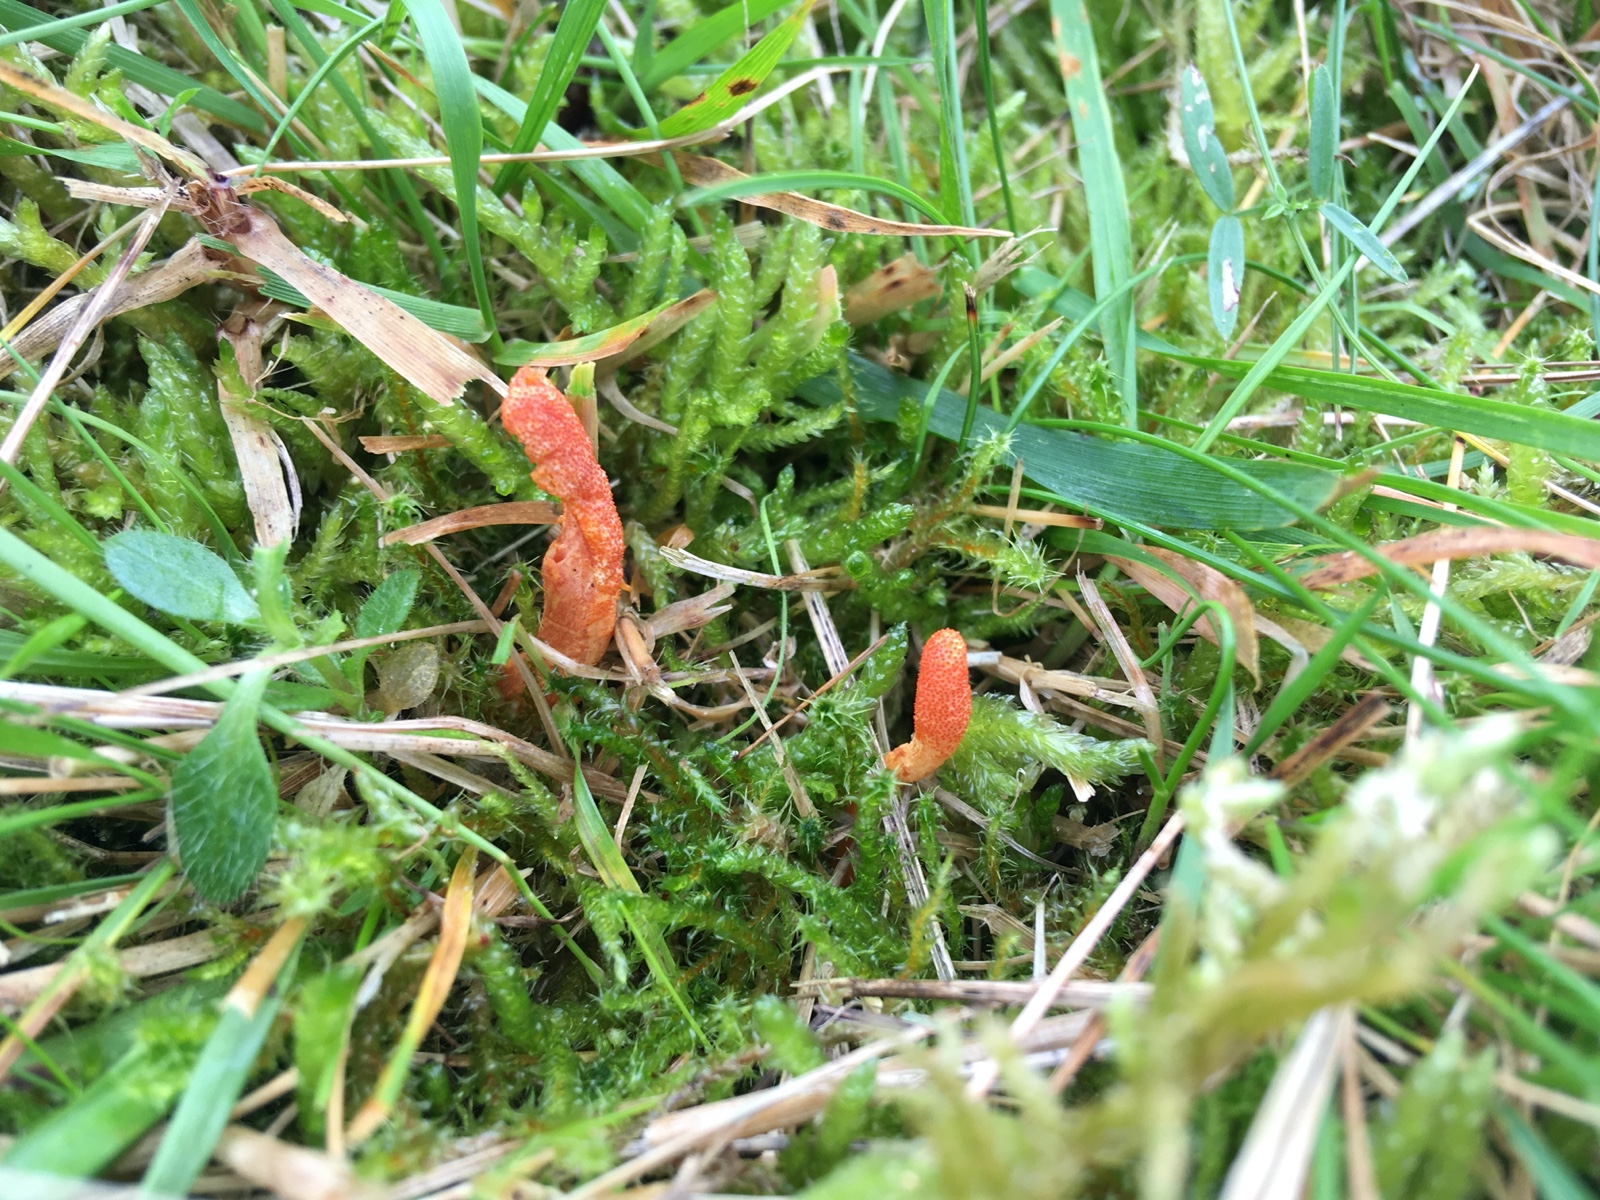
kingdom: Fungi
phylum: Ascomycota
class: Sordariomycetes
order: Hypocreales
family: Cordycipitaceae
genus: Cordyceps
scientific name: Cordyceps militaris
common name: puppe-snyltekølle
